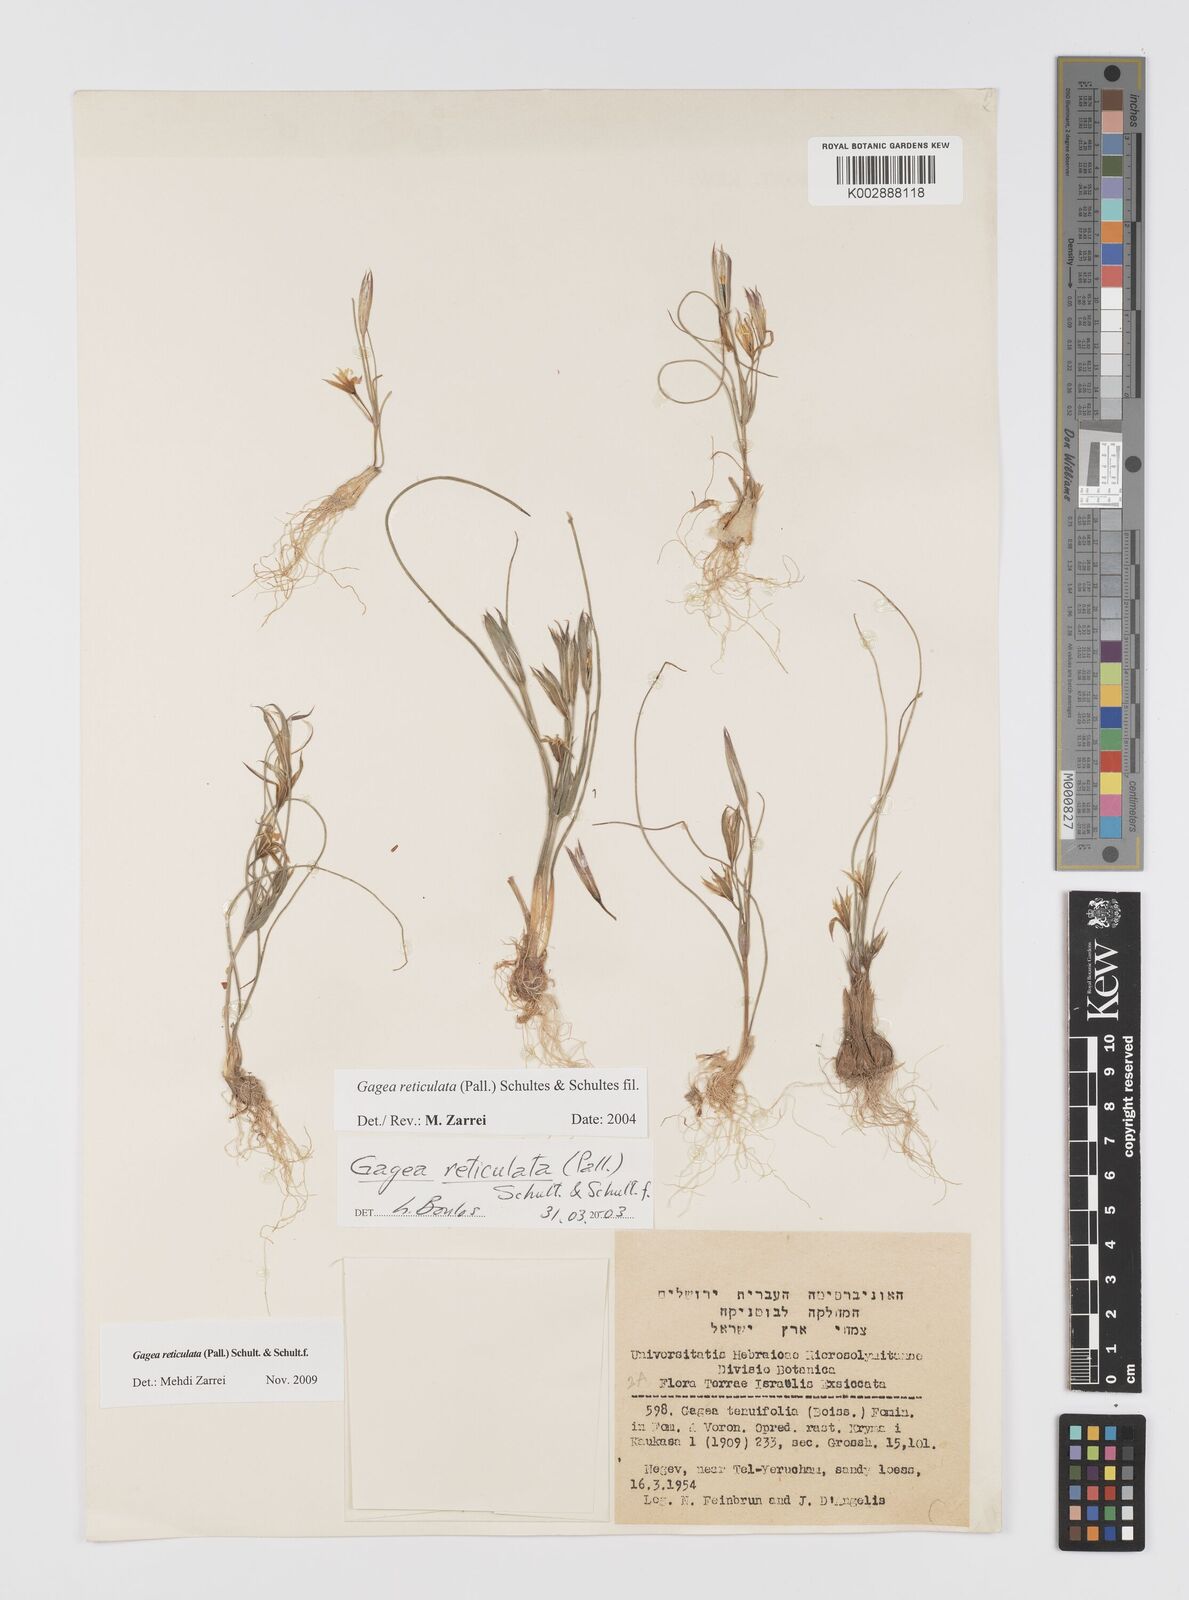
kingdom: Plantae
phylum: Tracheophyta
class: Liliopsida
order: Liliales
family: Liliaceae
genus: Gagea
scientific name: Gagea reticulata
